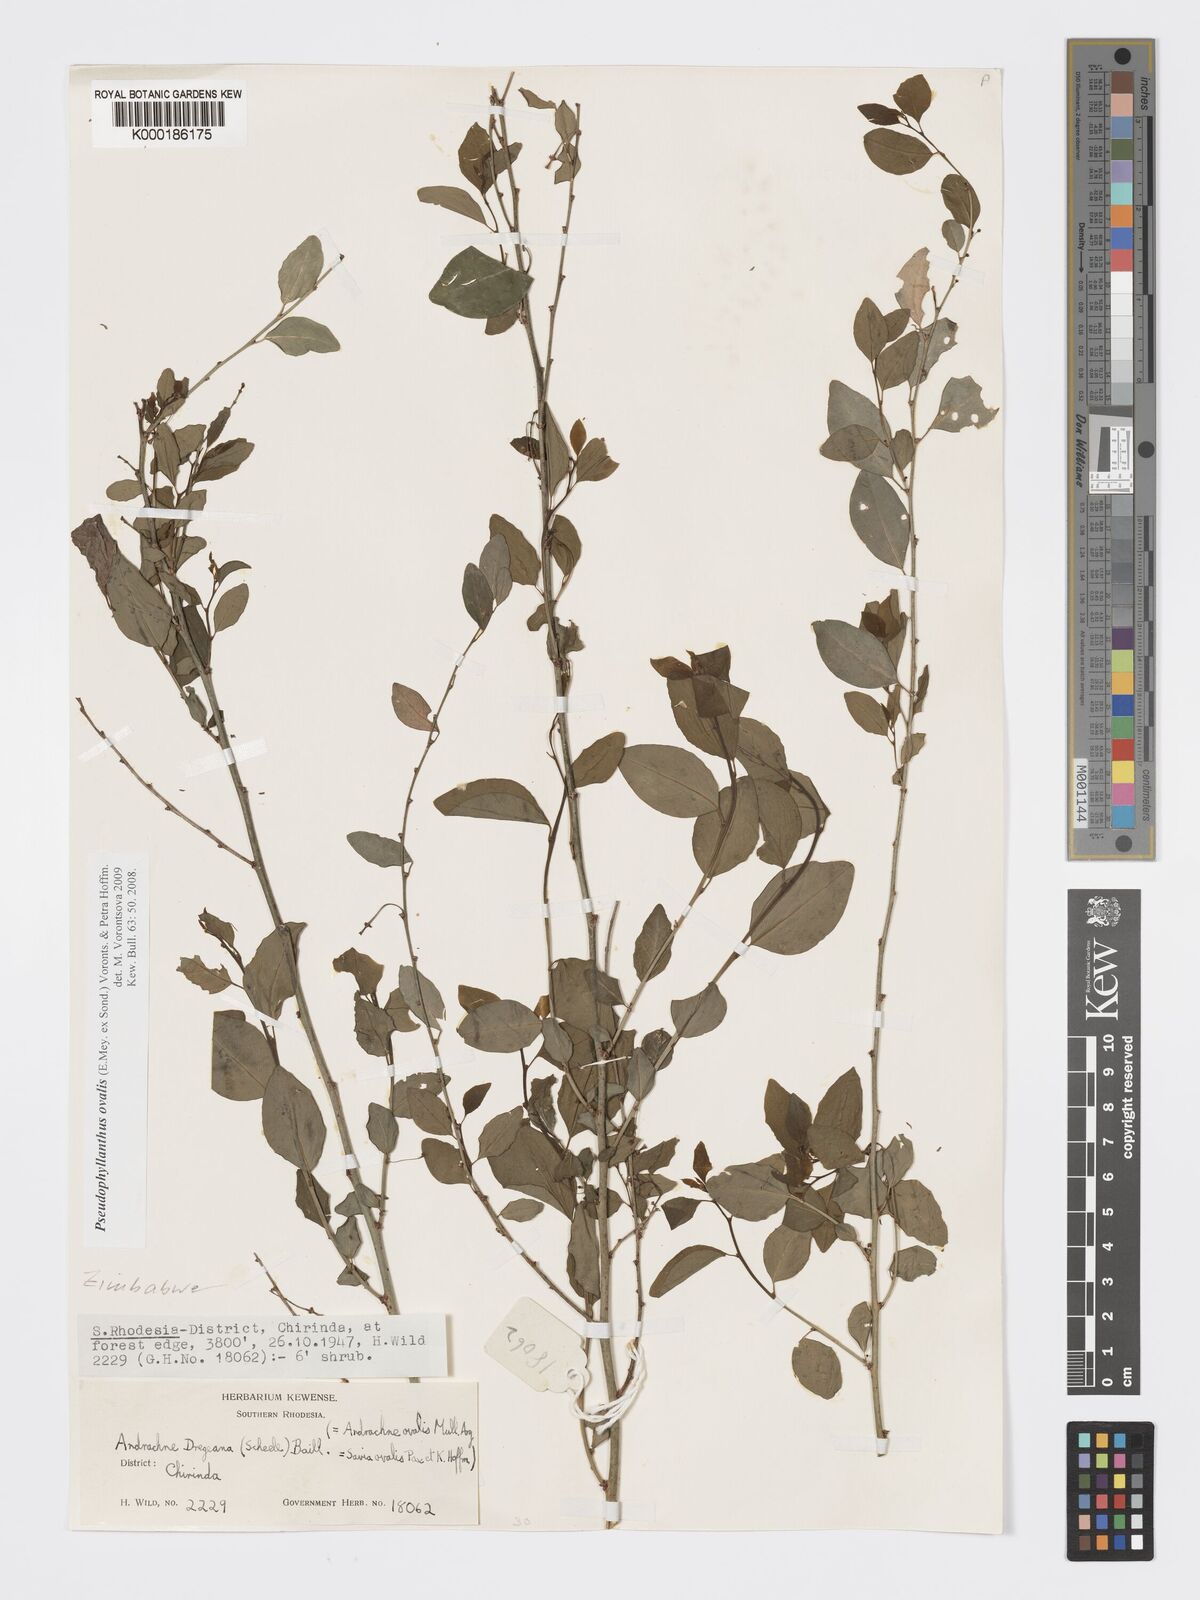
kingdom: Plantae
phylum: Tracheophyta
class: Magnoliopsida
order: Malpighiales
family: Phyllanthaceae
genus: Pseudophyllanthus
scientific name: Pseudophyllanthus ovalis
